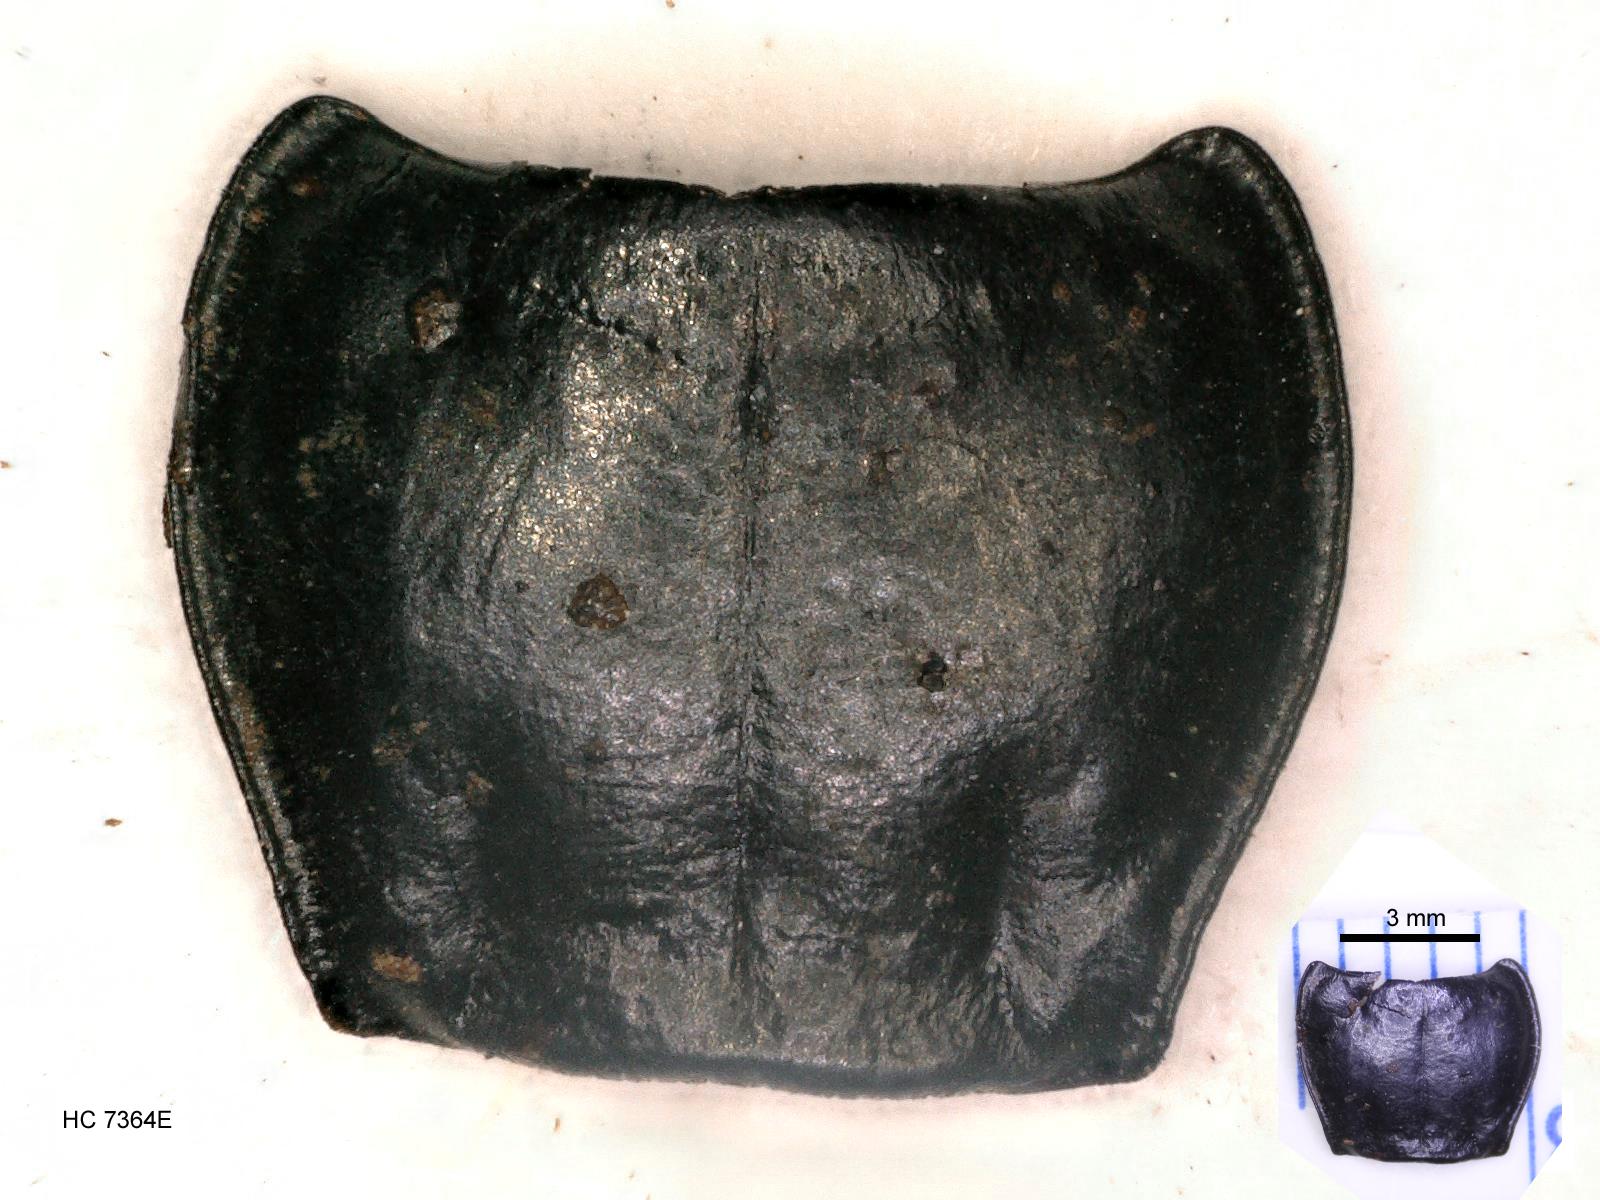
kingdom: Animalia
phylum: Arthropoda
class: Insecta
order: Coleoptera
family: Carabidae
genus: Pterostichus
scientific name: Pterostichus jacobinus
